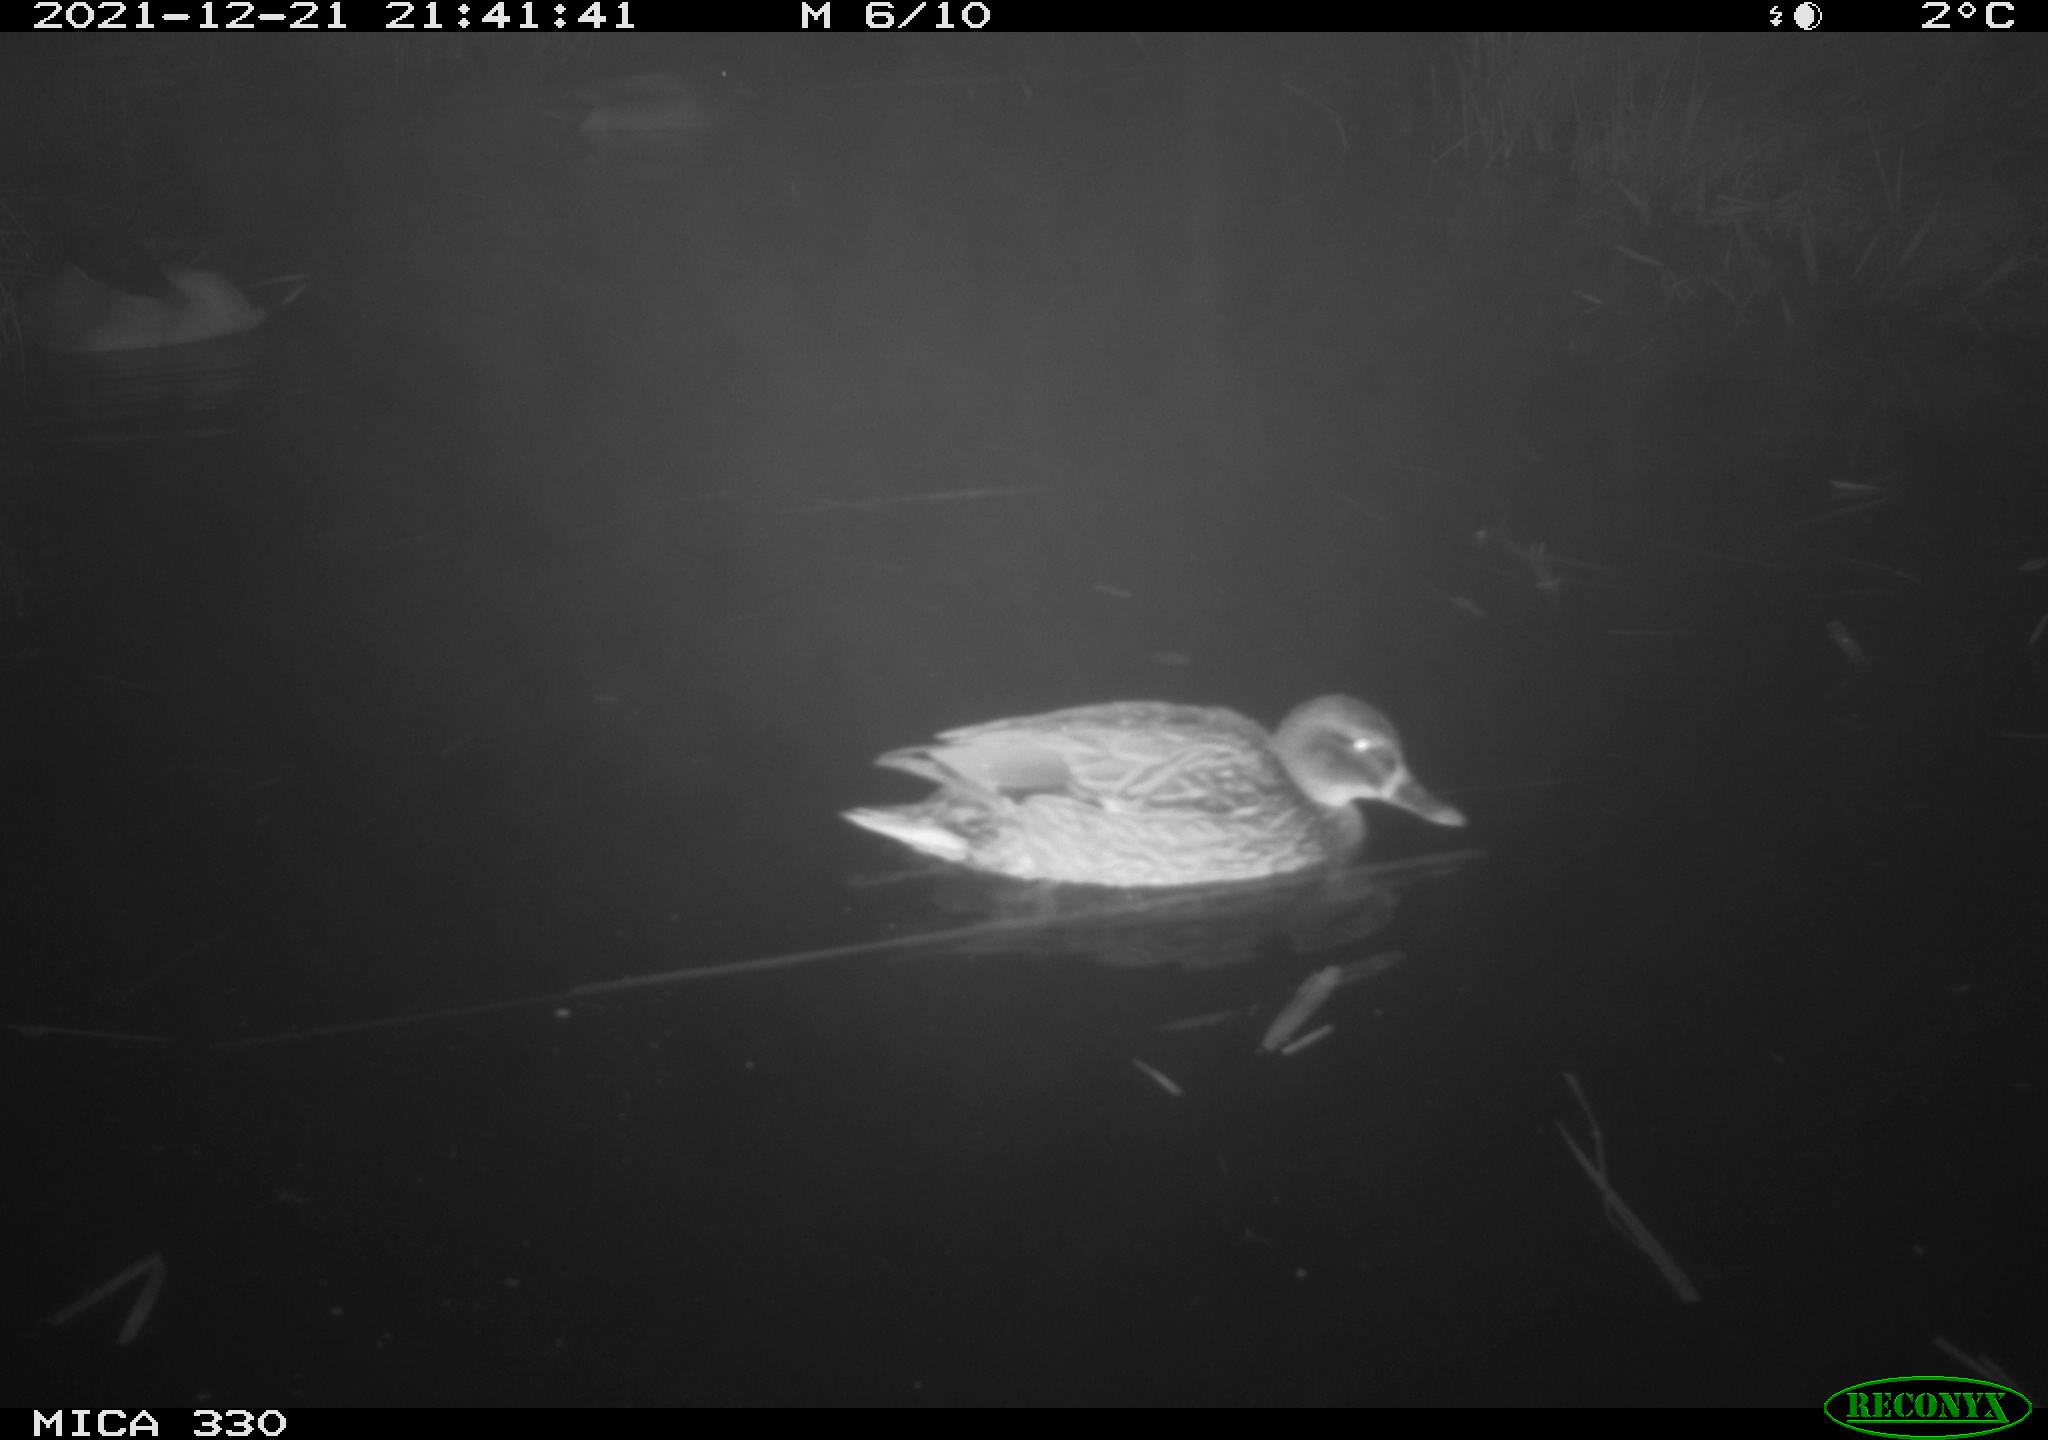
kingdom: Animalia
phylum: Chordata
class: Aves
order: Anseriformes
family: Anatidae
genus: Anas
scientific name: Anas platyrhynchos
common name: Mallard
